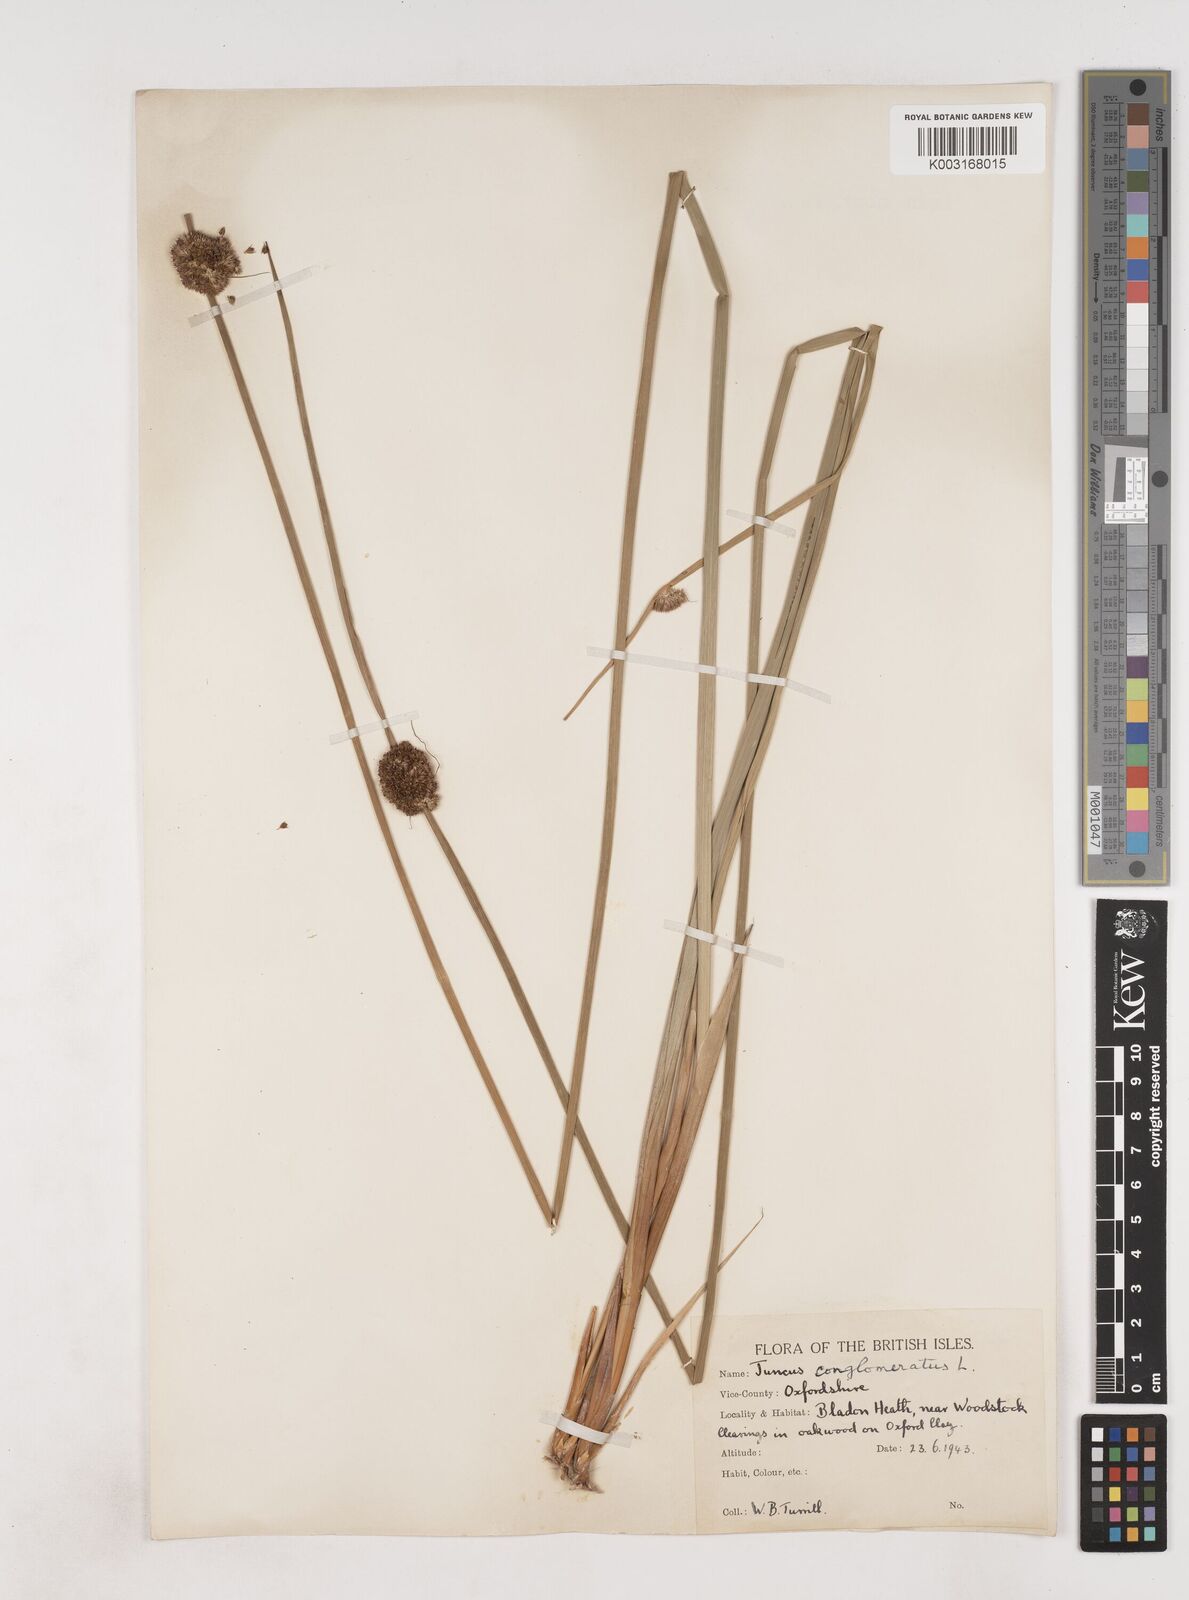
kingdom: Plantae
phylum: Tracheophyta
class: Liliopsida
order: Poales
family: Juncaceae
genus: Juncus
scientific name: Juncus conglomeratus
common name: Compact rush
